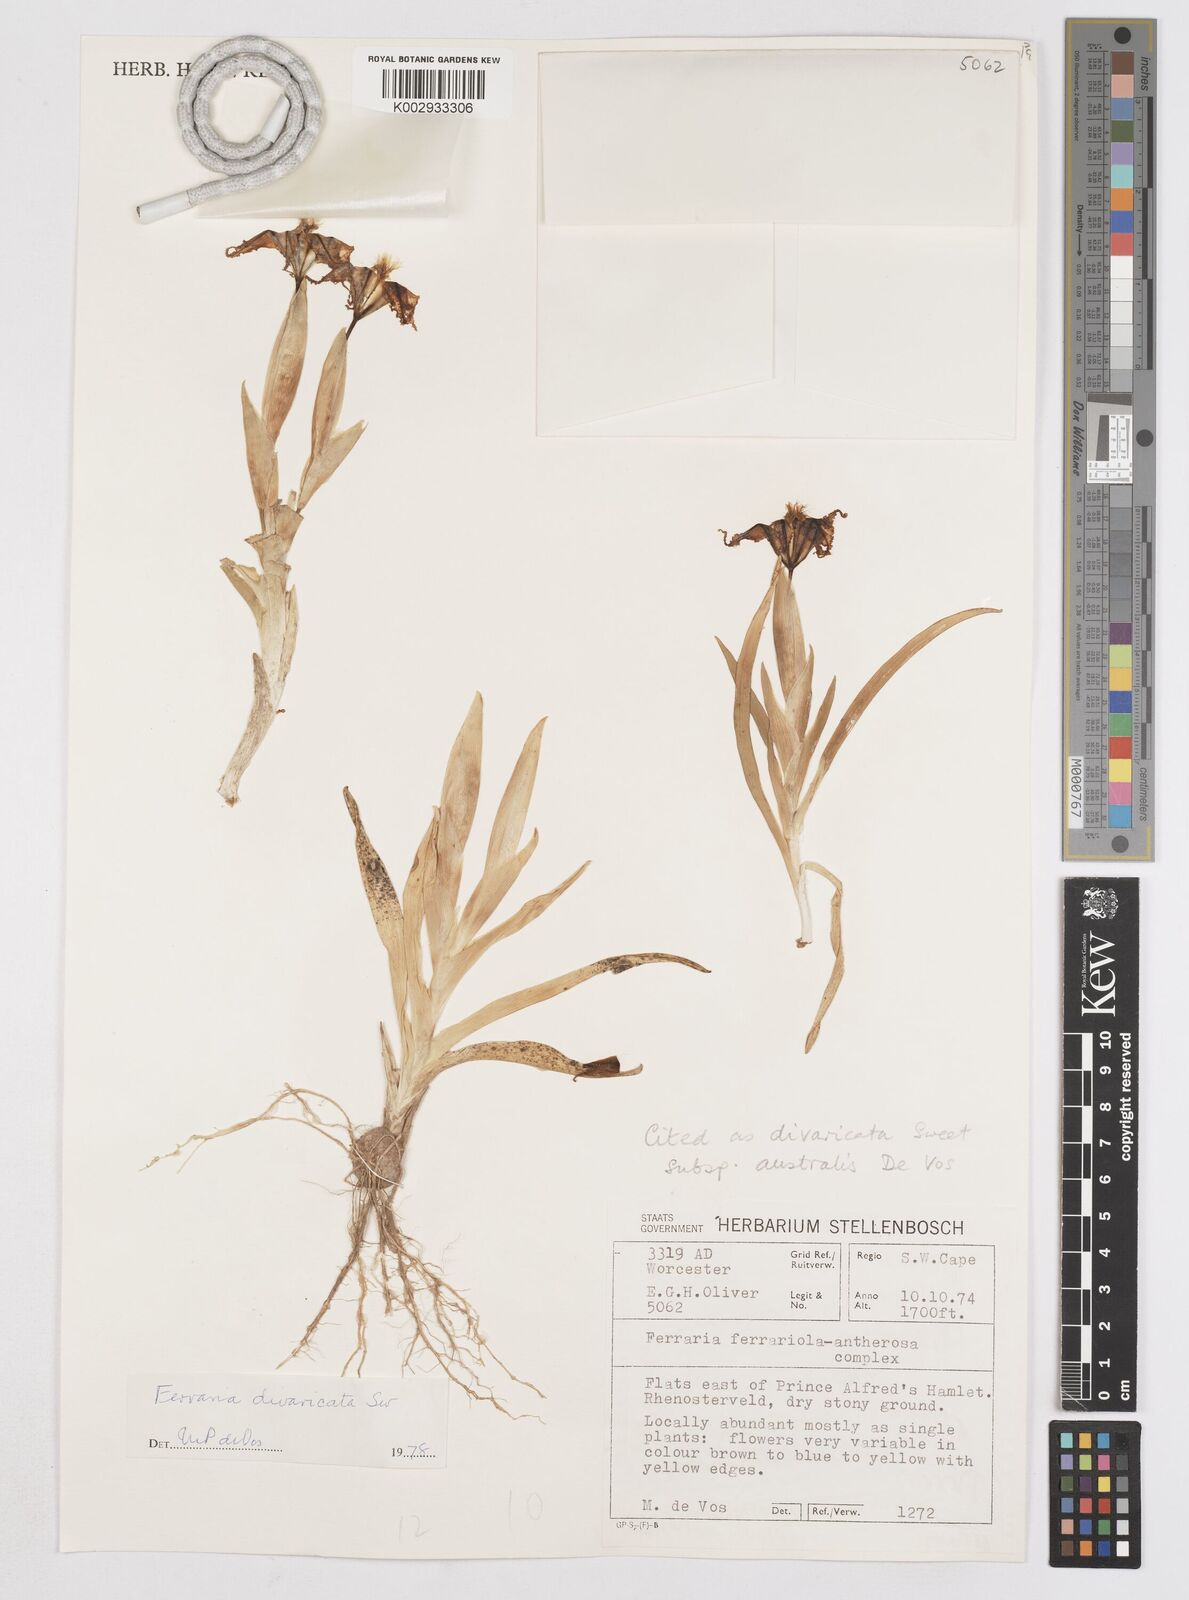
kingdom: Plantae
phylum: Tracheophyta
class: Liliopsida
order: Asparagales
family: Iridaceae
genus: Ferraria
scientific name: Ferraria divaricata
